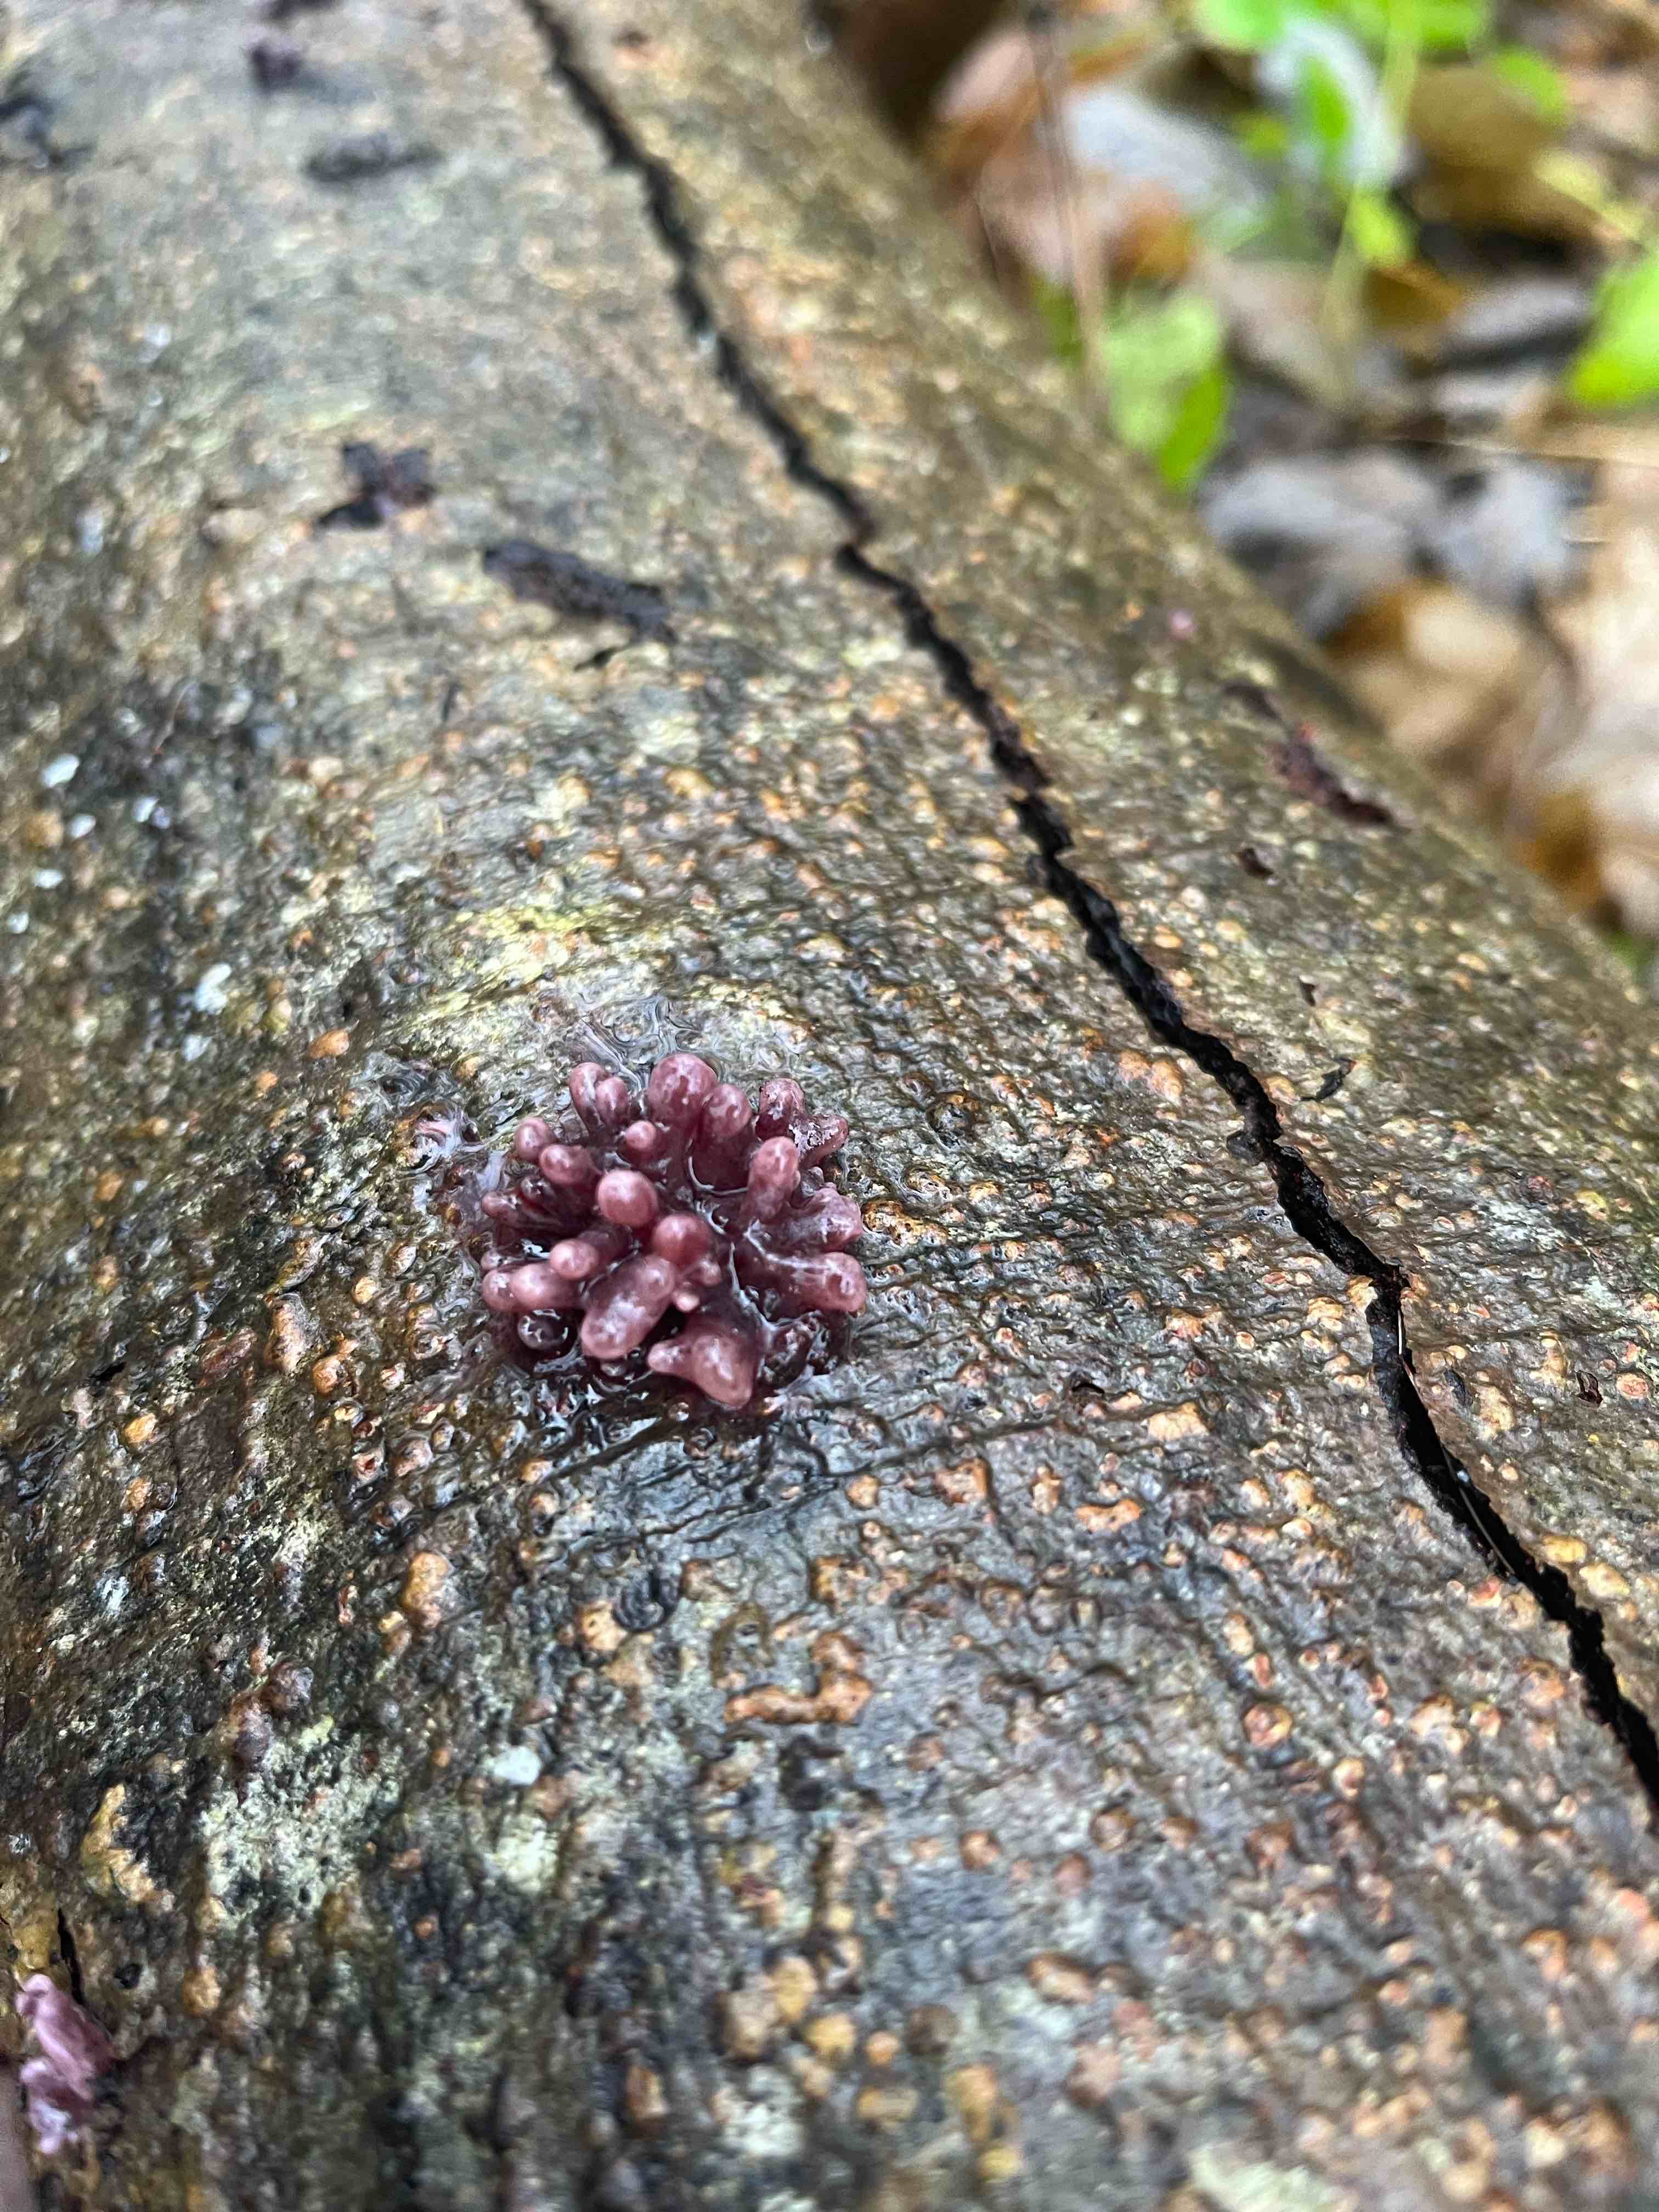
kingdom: Fungi
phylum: Ascomycota
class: Leotiomycetes
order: Helotiales
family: Gelatinodiscaceae
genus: Ascocoryne
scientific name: Ascocoryne sarcoides
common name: rødlilla sejskive
